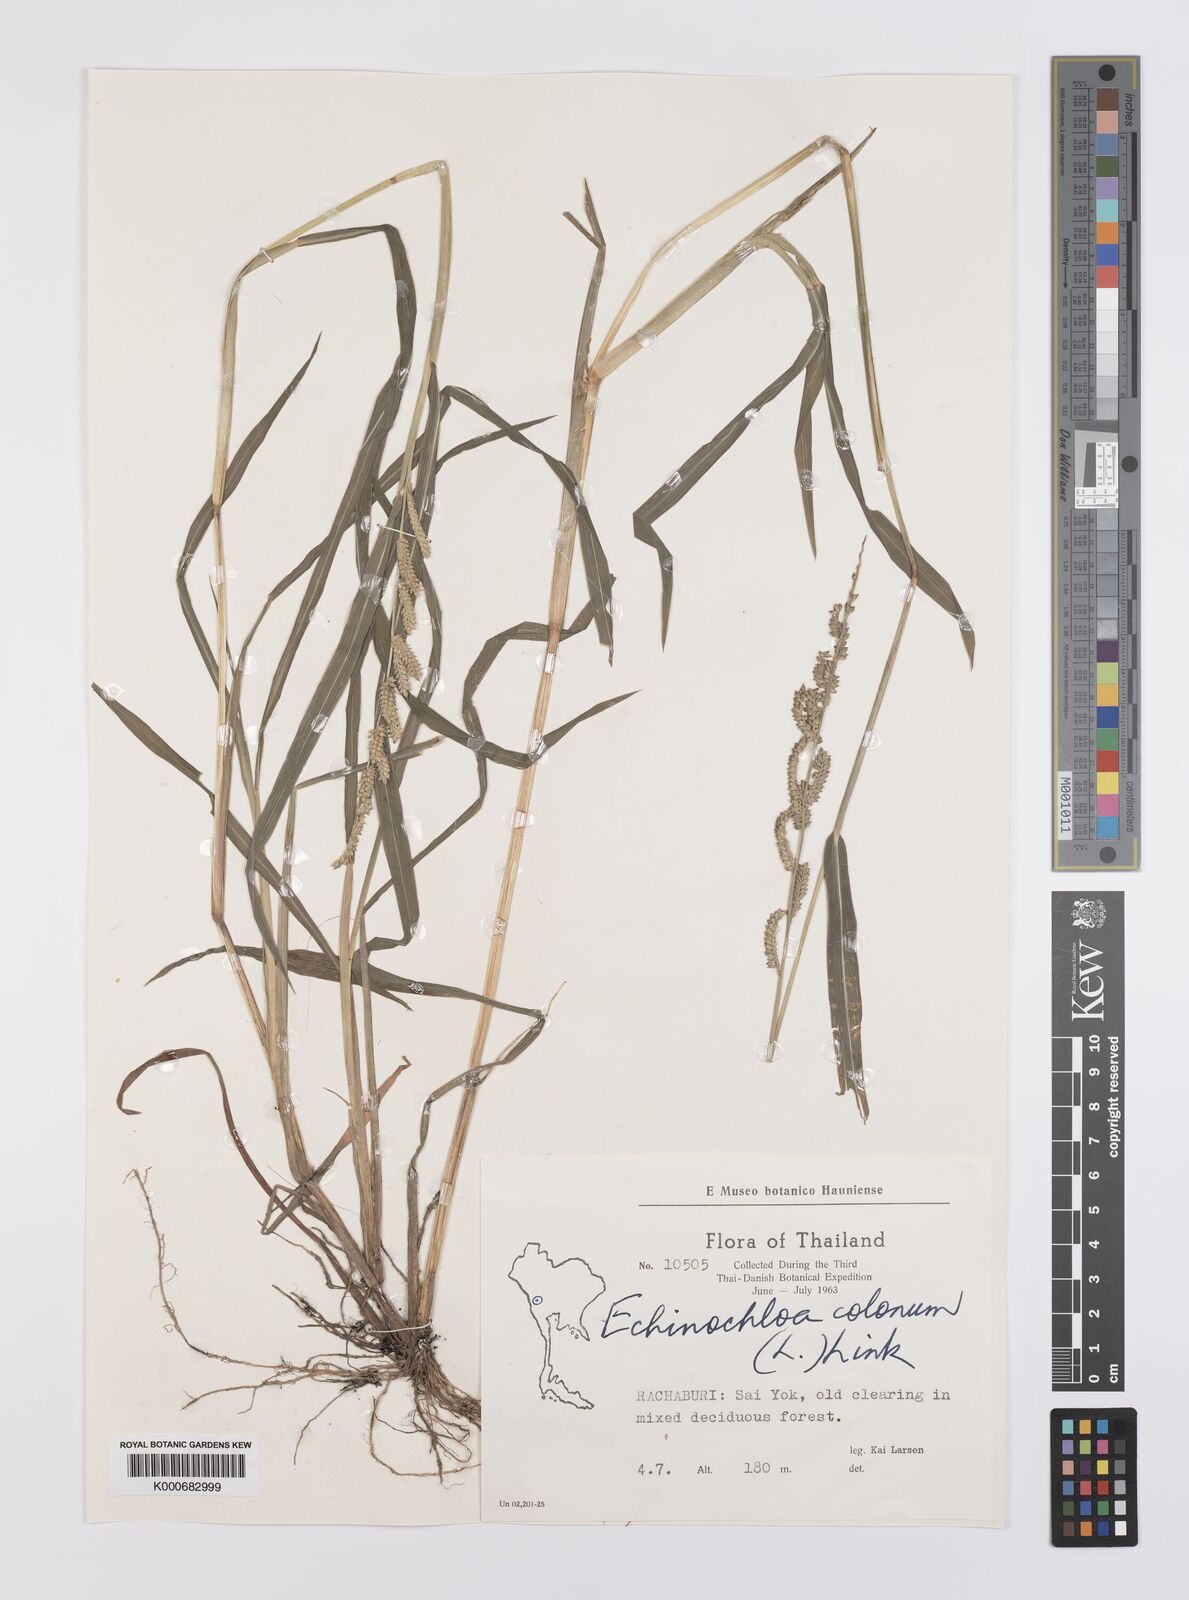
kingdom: Plantae
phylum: Tracheophyta
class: Liliopsida
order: Poales
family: Poaceae
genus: Echinochloa
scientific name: Echinochloa colonum
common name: Jungle rice
